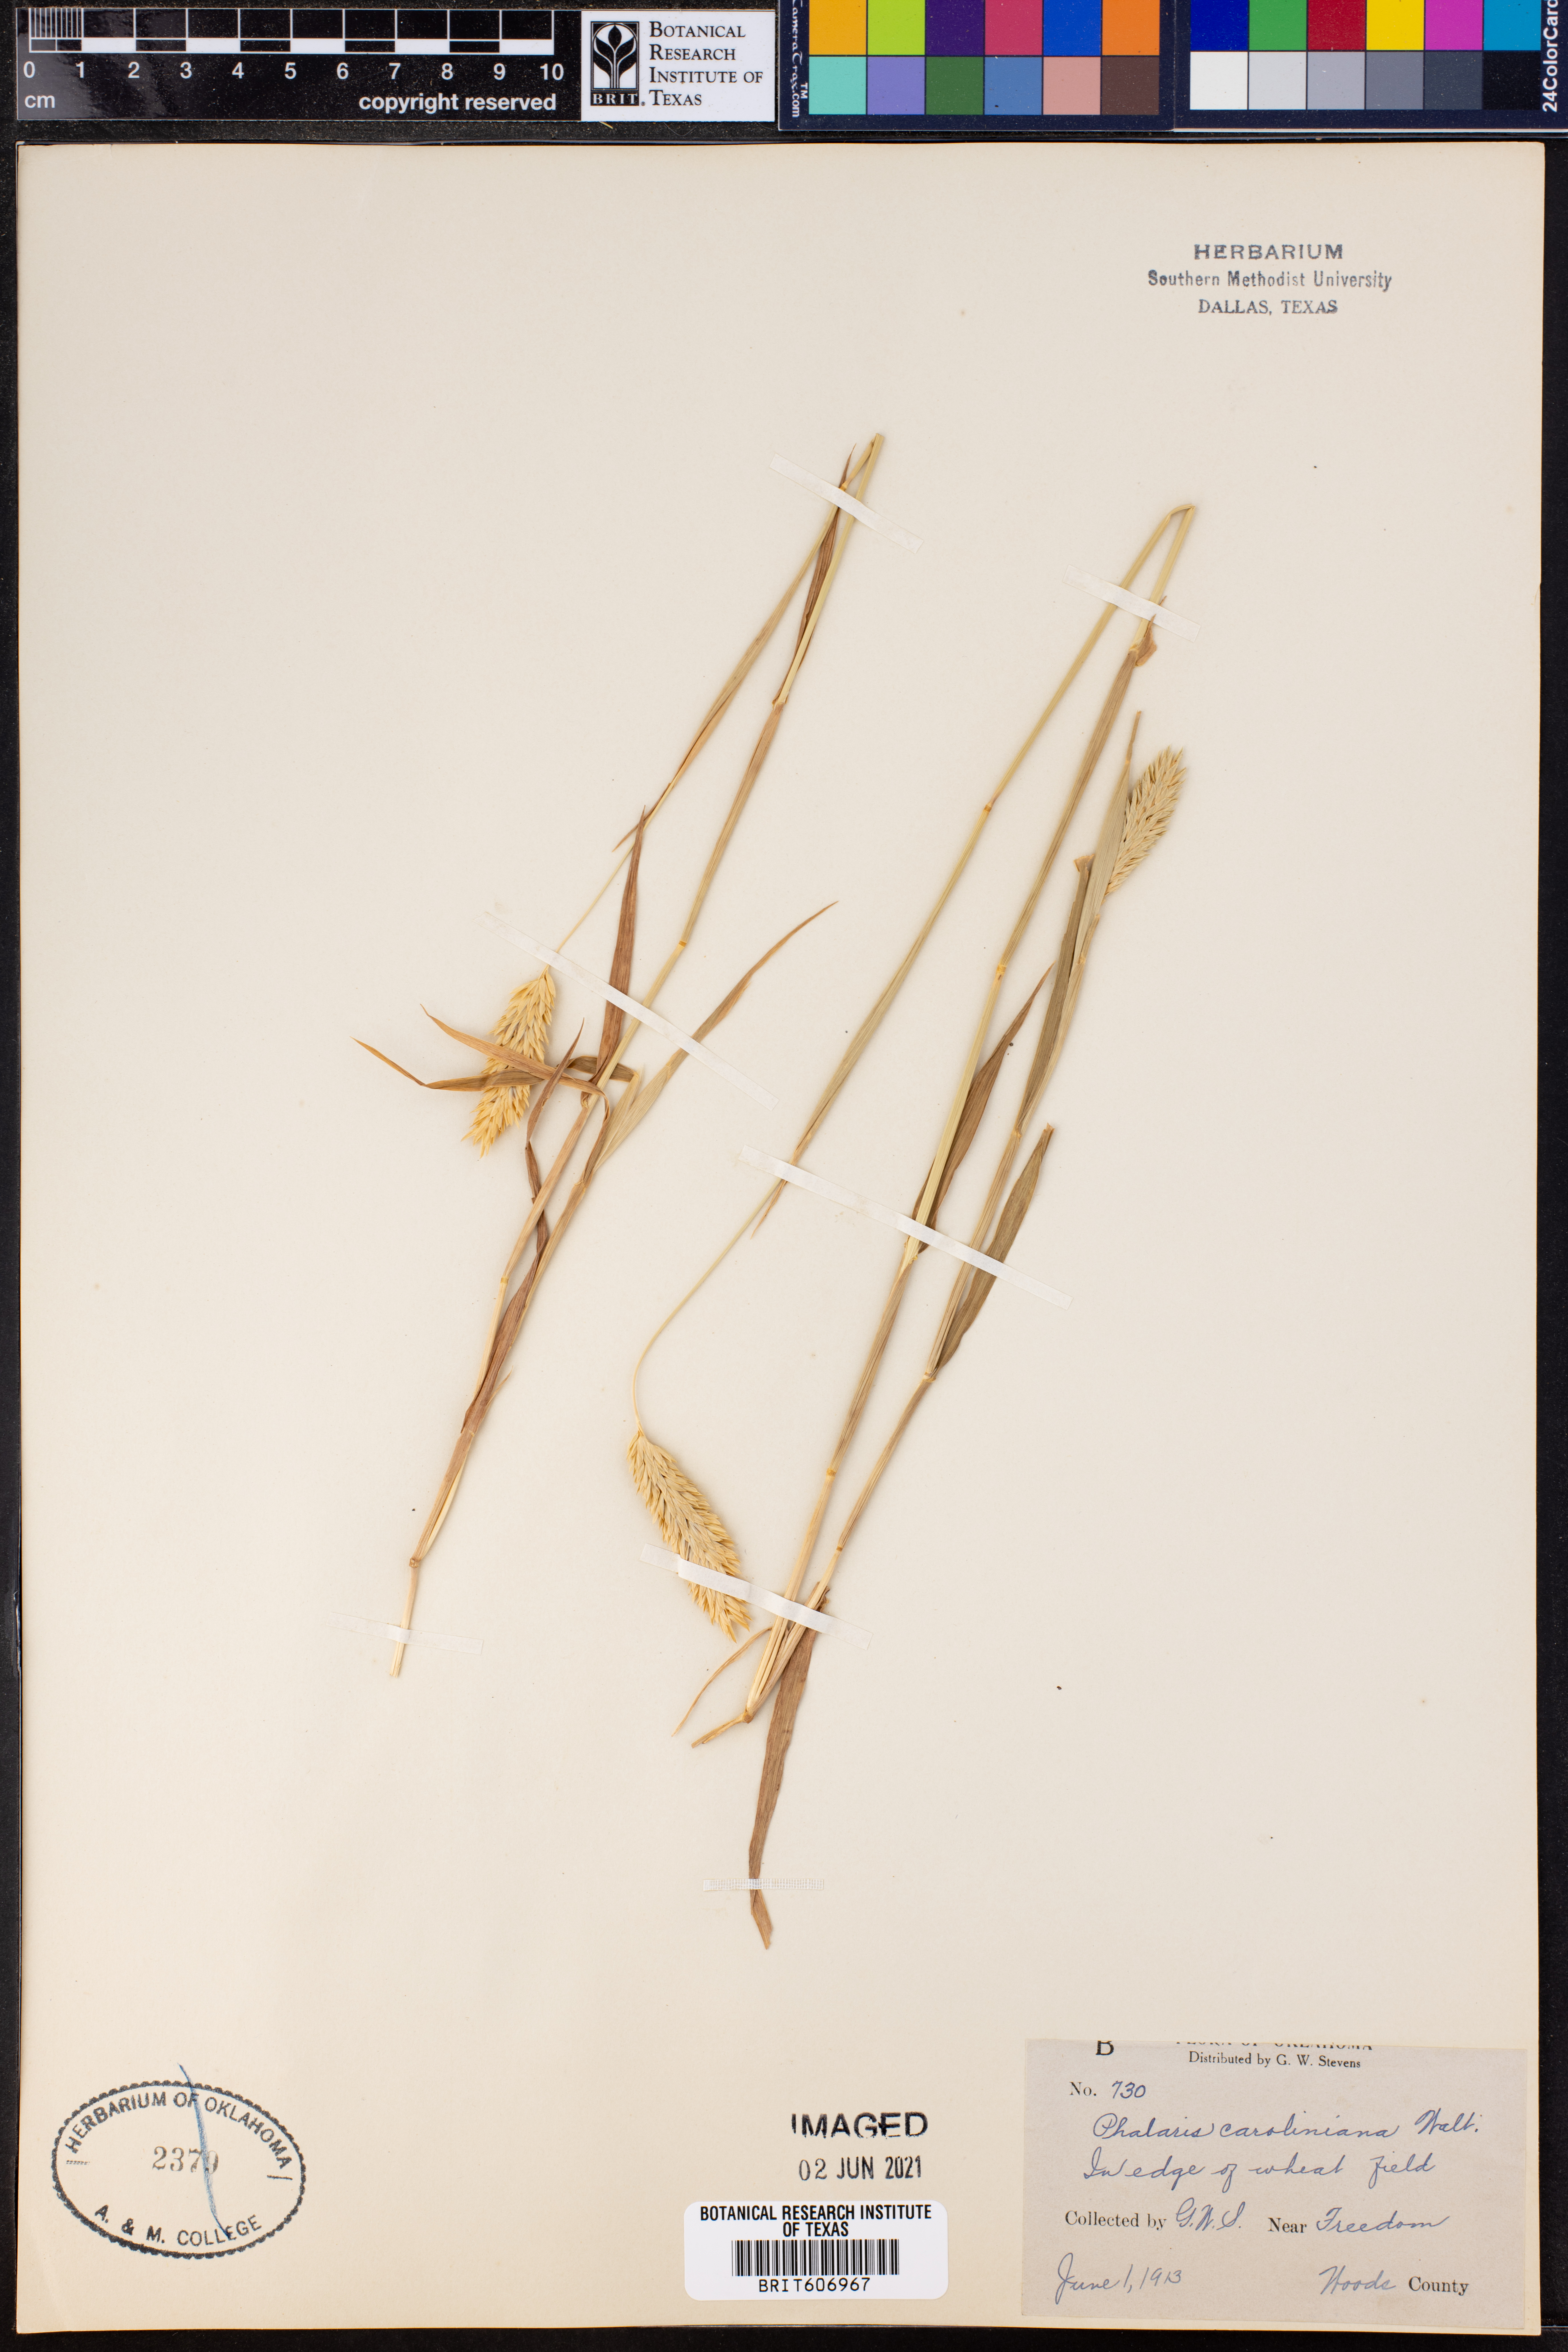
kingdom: Plantae
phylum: Tracheophyta
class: Liliopsida
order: Poales
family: Poaceae
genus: Phalaris
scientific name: Phalaris caroliniana
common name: May grass
